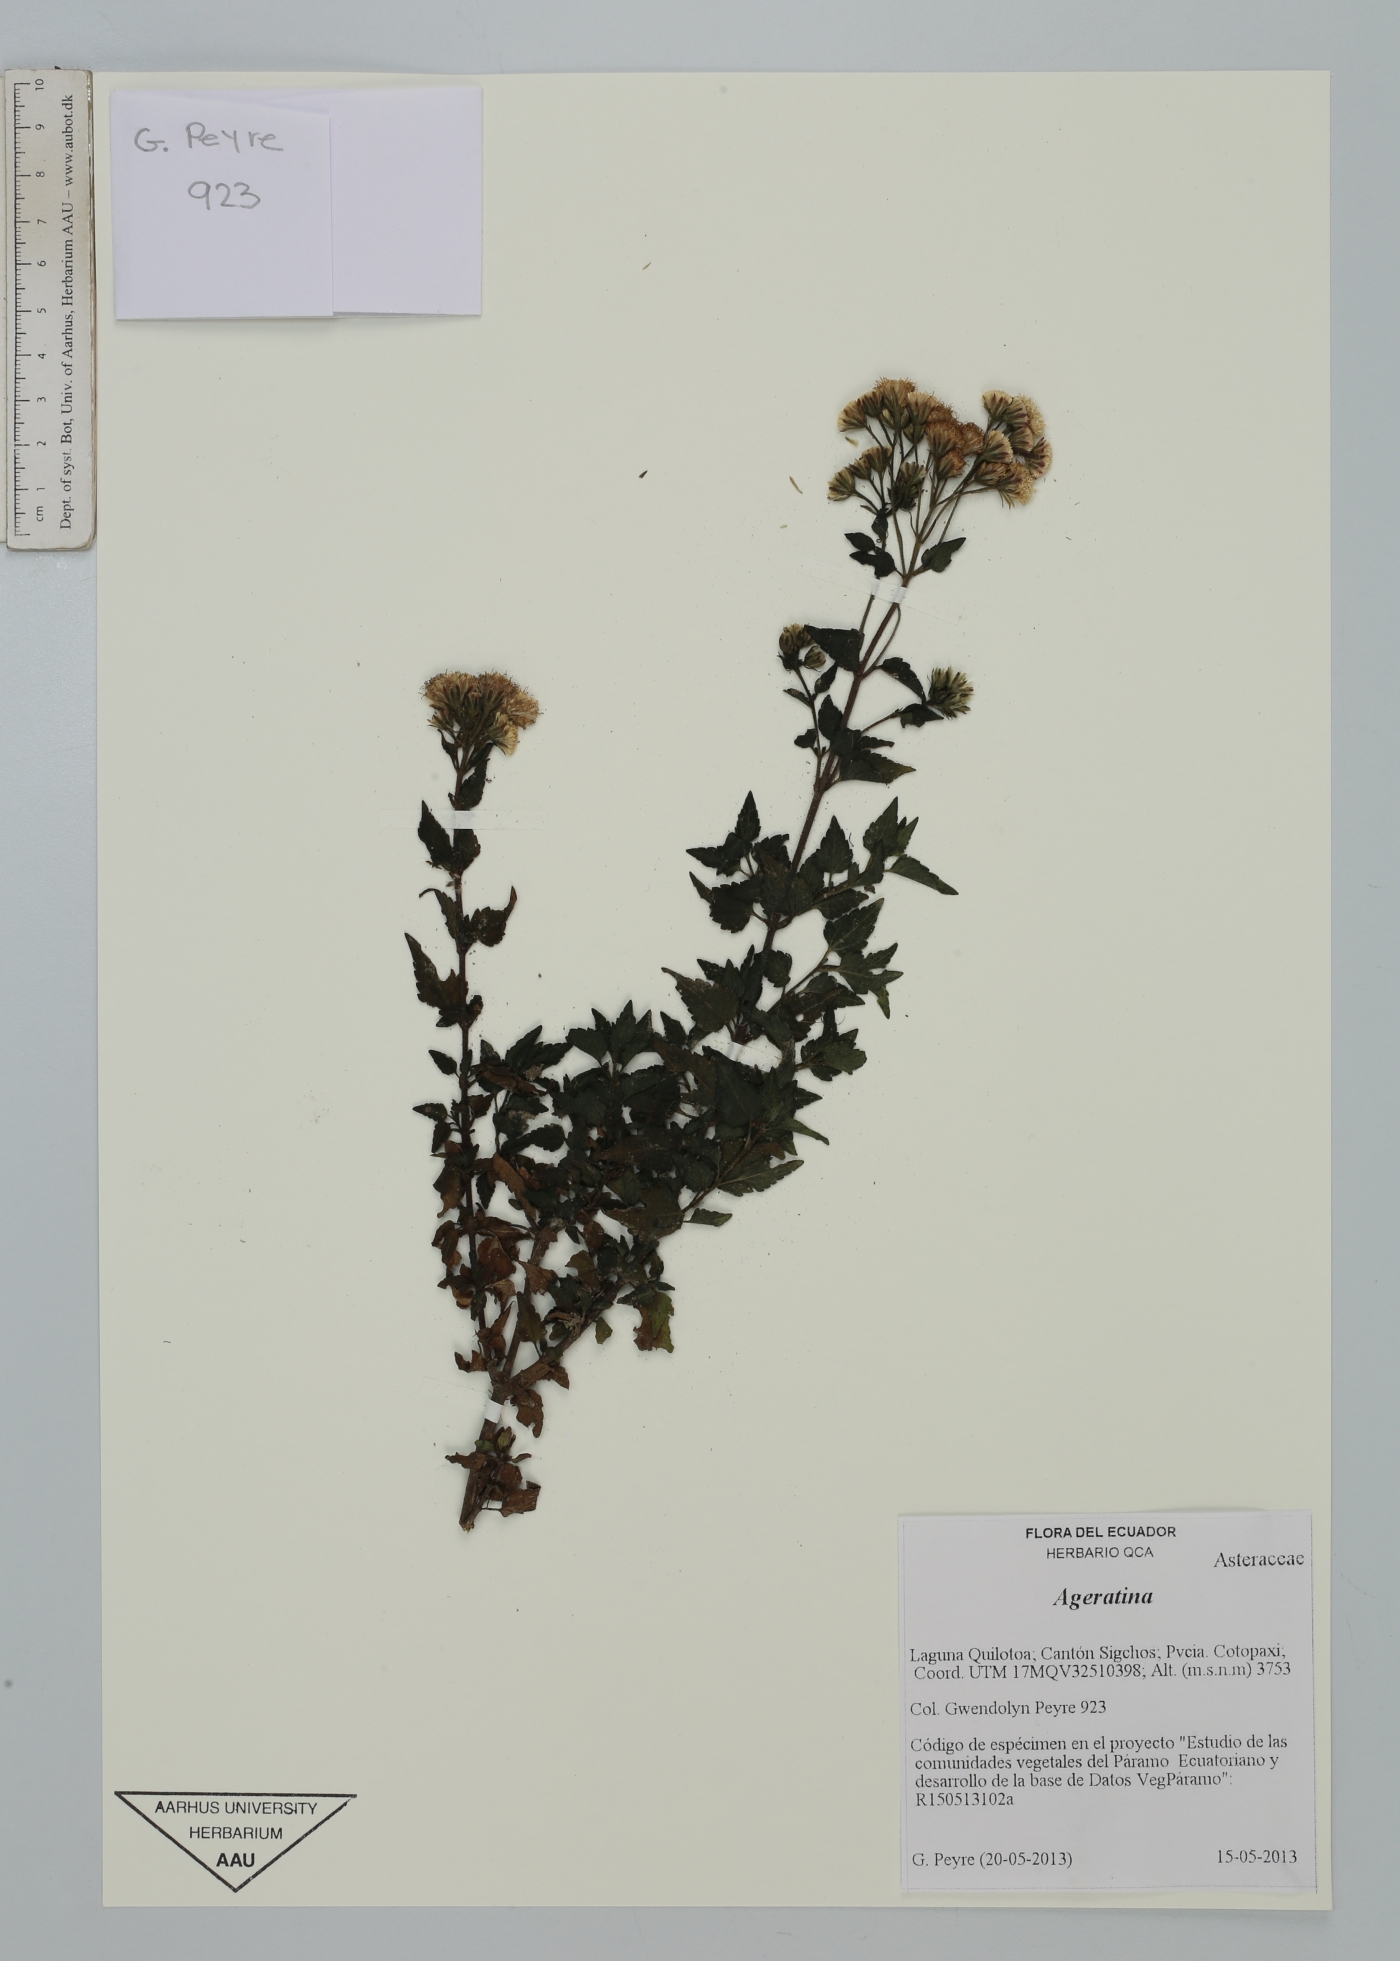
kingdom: Plantae
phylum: Tracheophyta
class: Magnoliopsida
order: Asterales
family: Asteraceae
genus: Ageratina
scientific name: Ageratina
